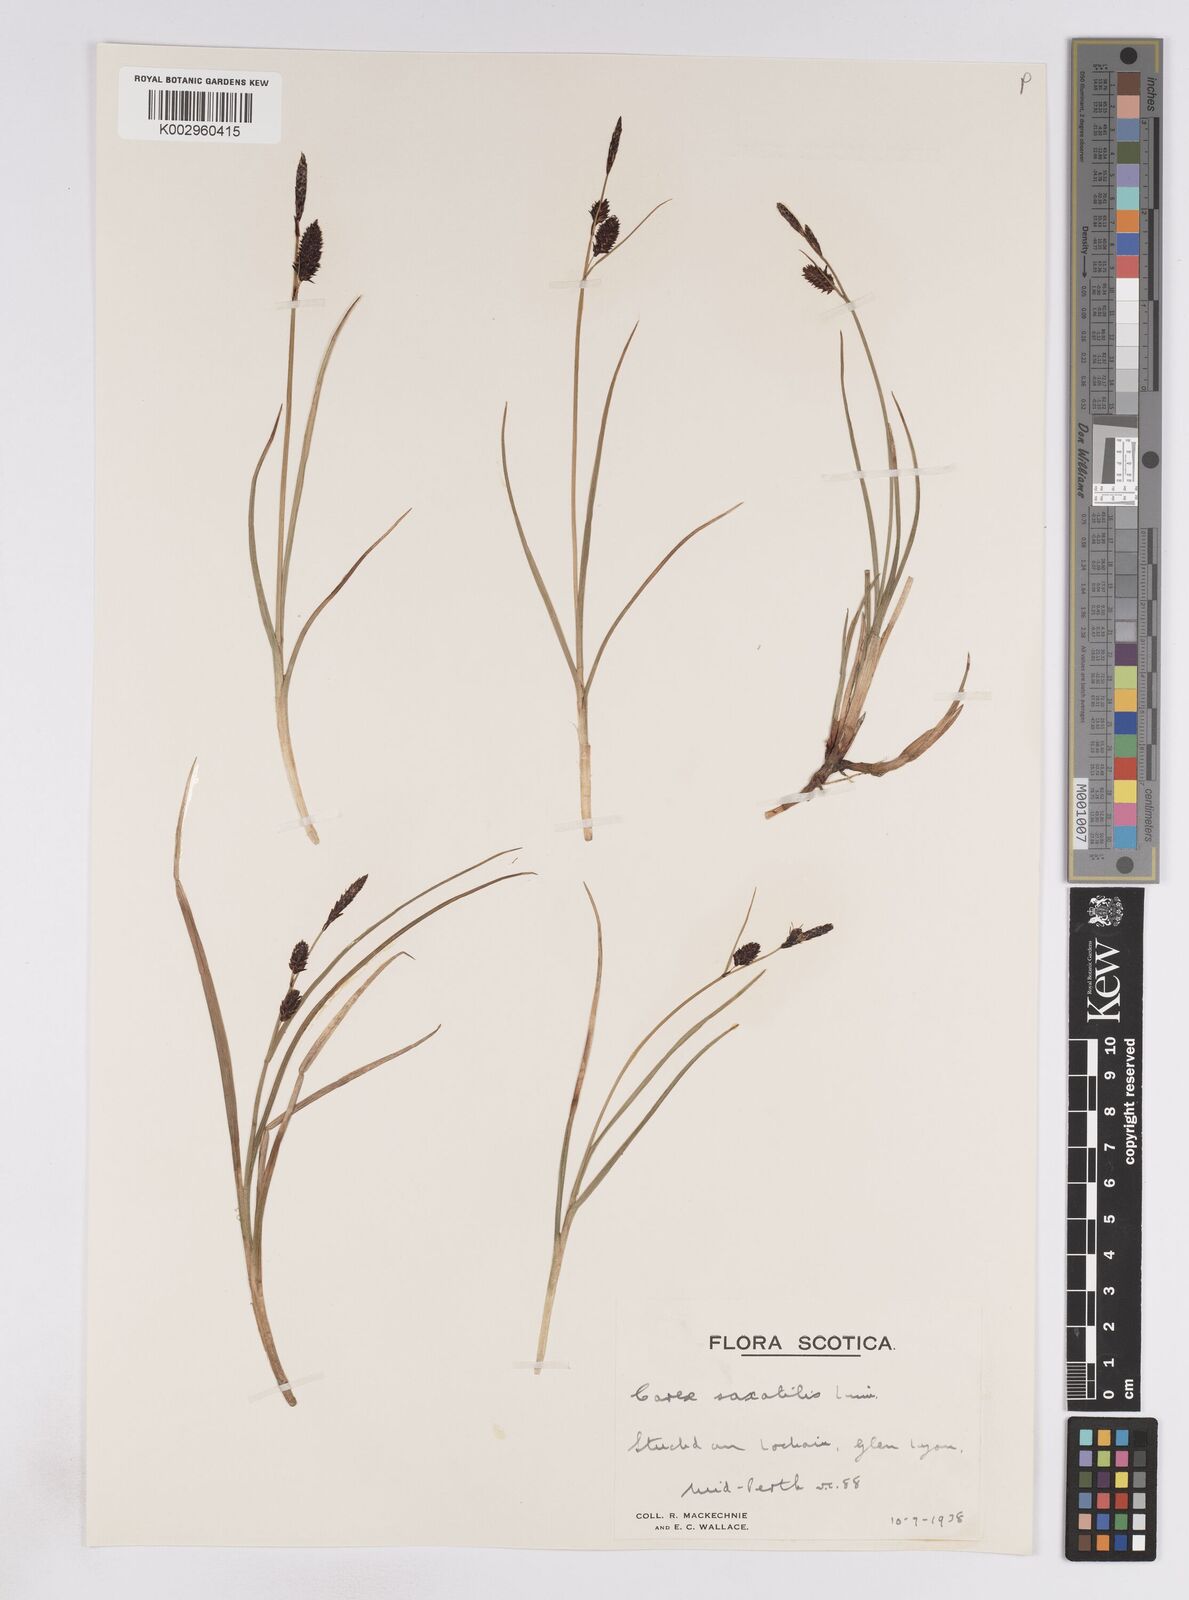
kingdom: Plantae
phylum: Tracheophyta
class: Liliopsida
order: Poales
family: Cyperaceae
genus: Carex
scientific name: Carex saxatilis
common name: Russet sedge
